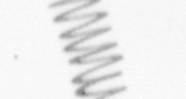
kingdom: Chromista
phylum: Ochrophyta
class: Bacillariophyceae
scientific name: Bacillariophyceae
